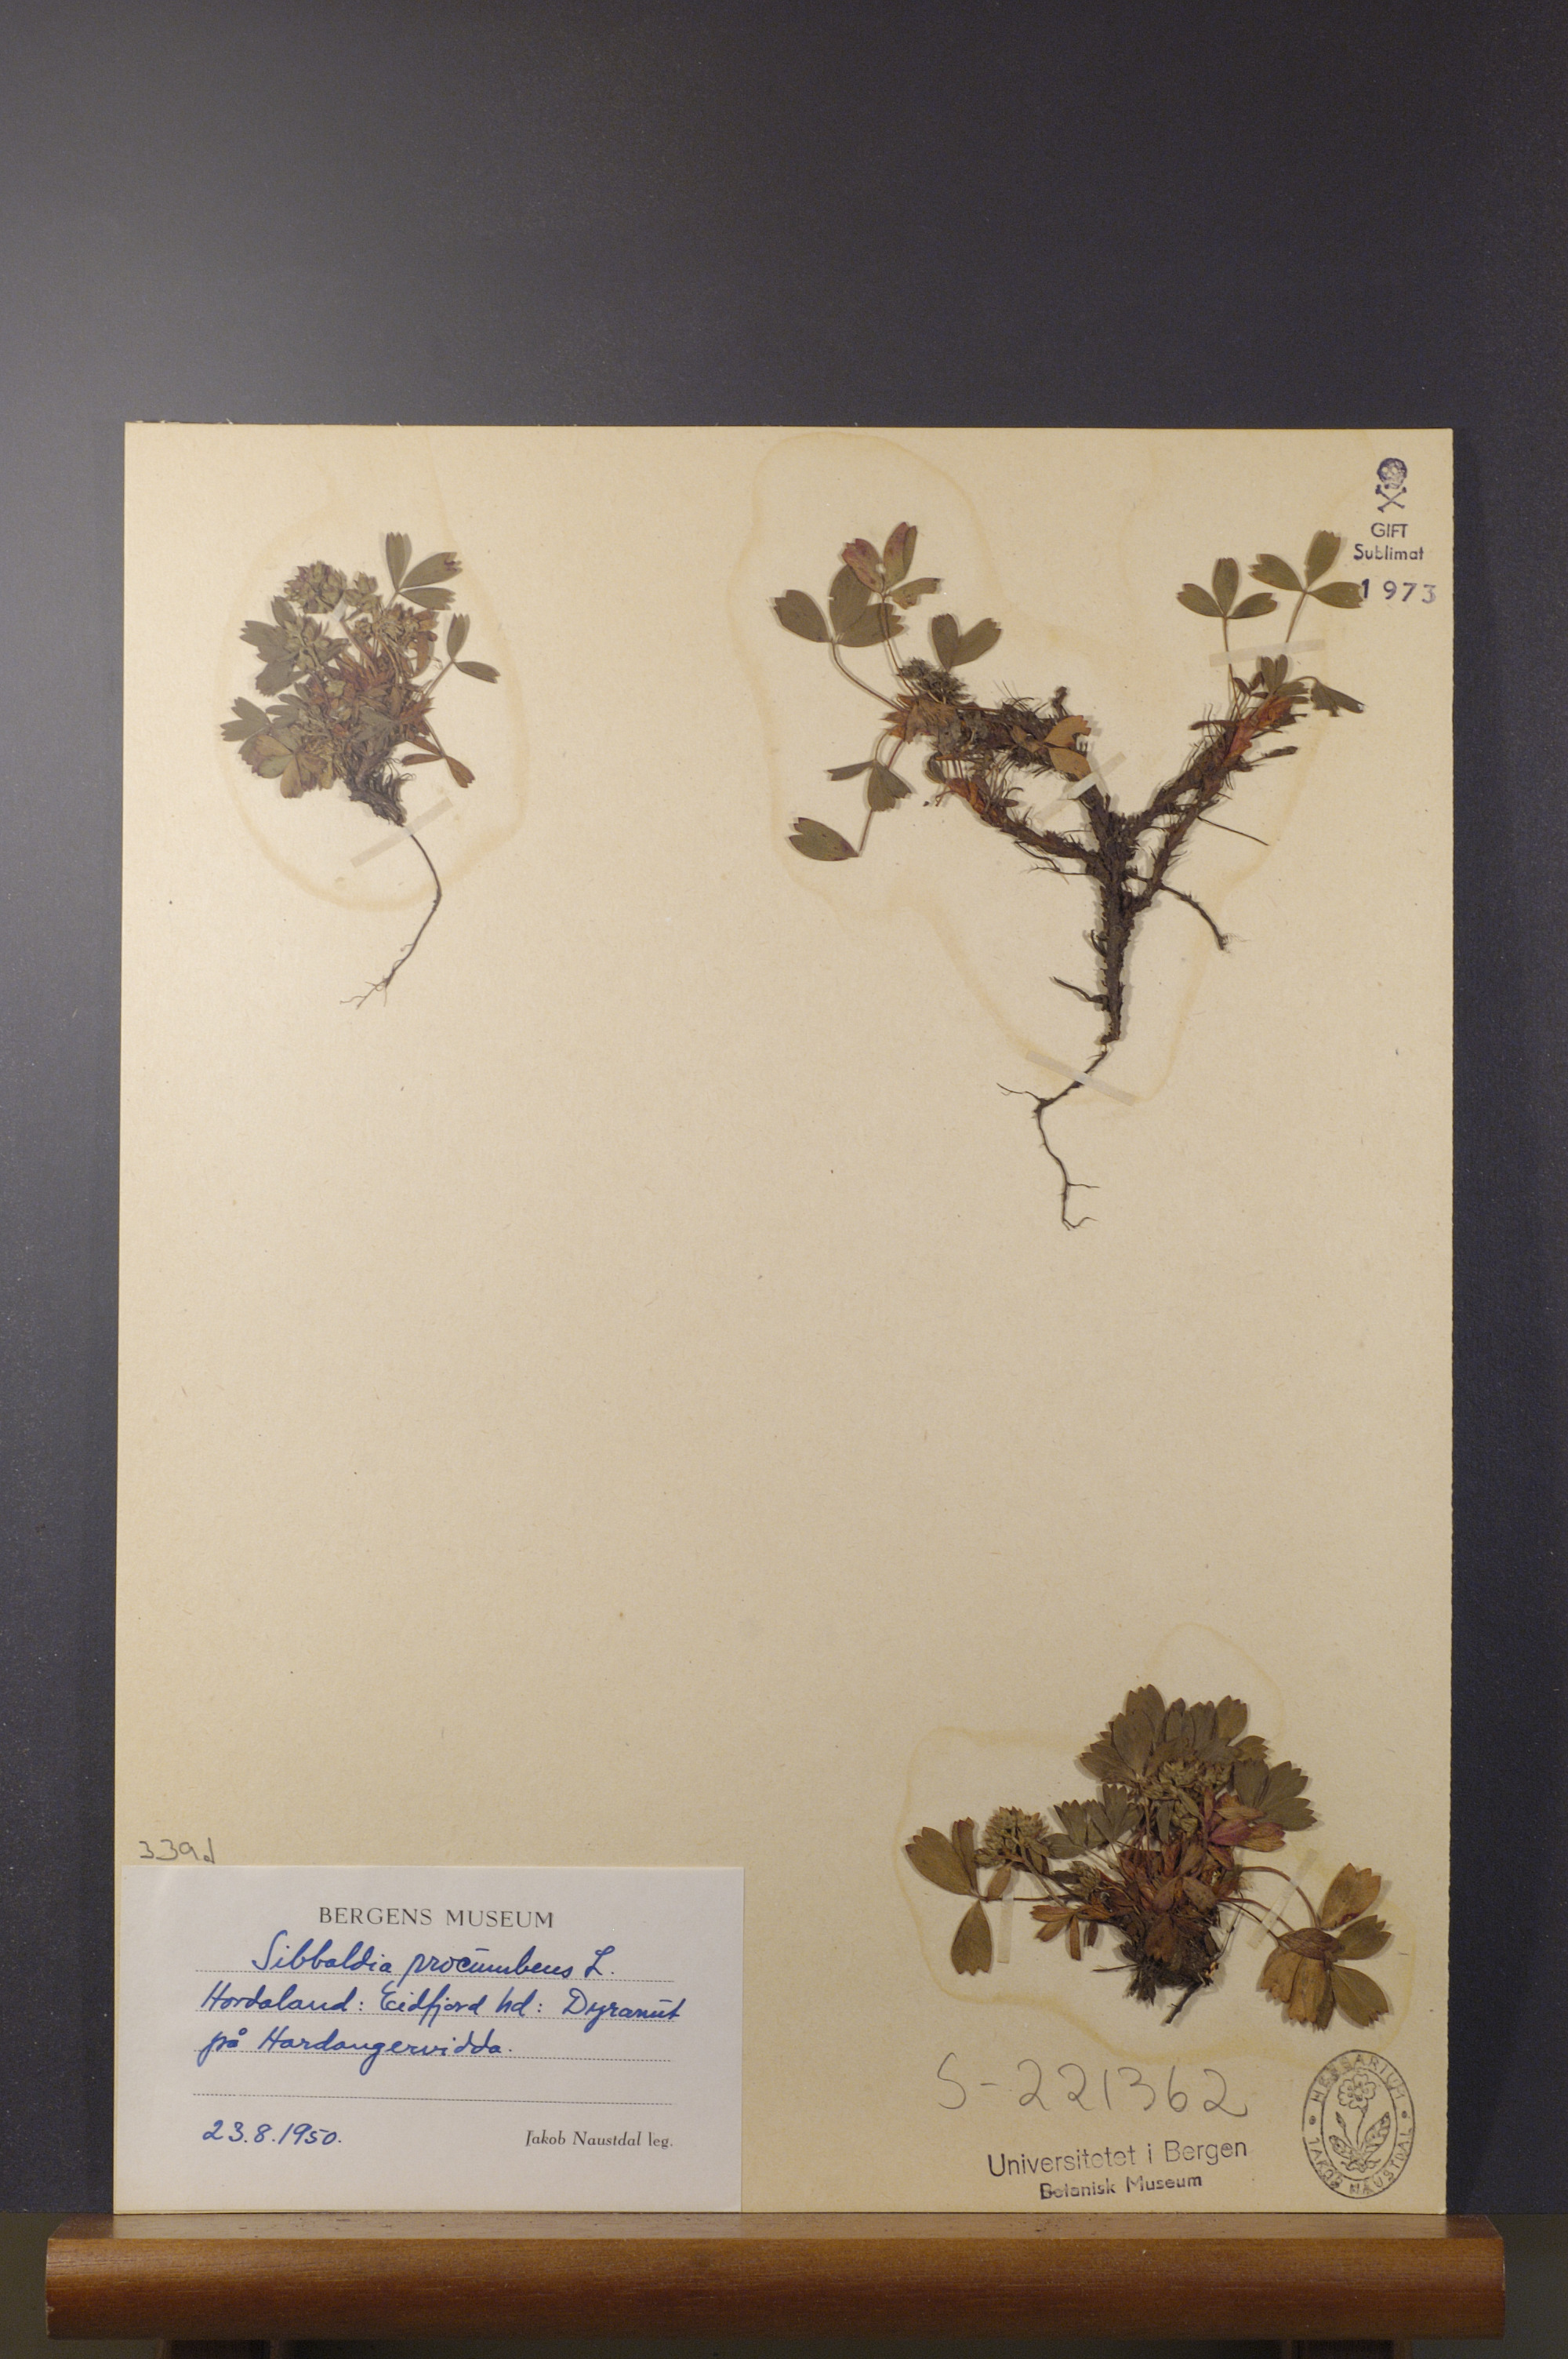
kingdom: Plantae
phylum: Tracheophyta
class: Magnoliopsida
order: Rosales
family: Rosaceae
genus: Sibbaldia
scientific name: Sibbaldia procumbens
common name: Creeping sibbaldia
